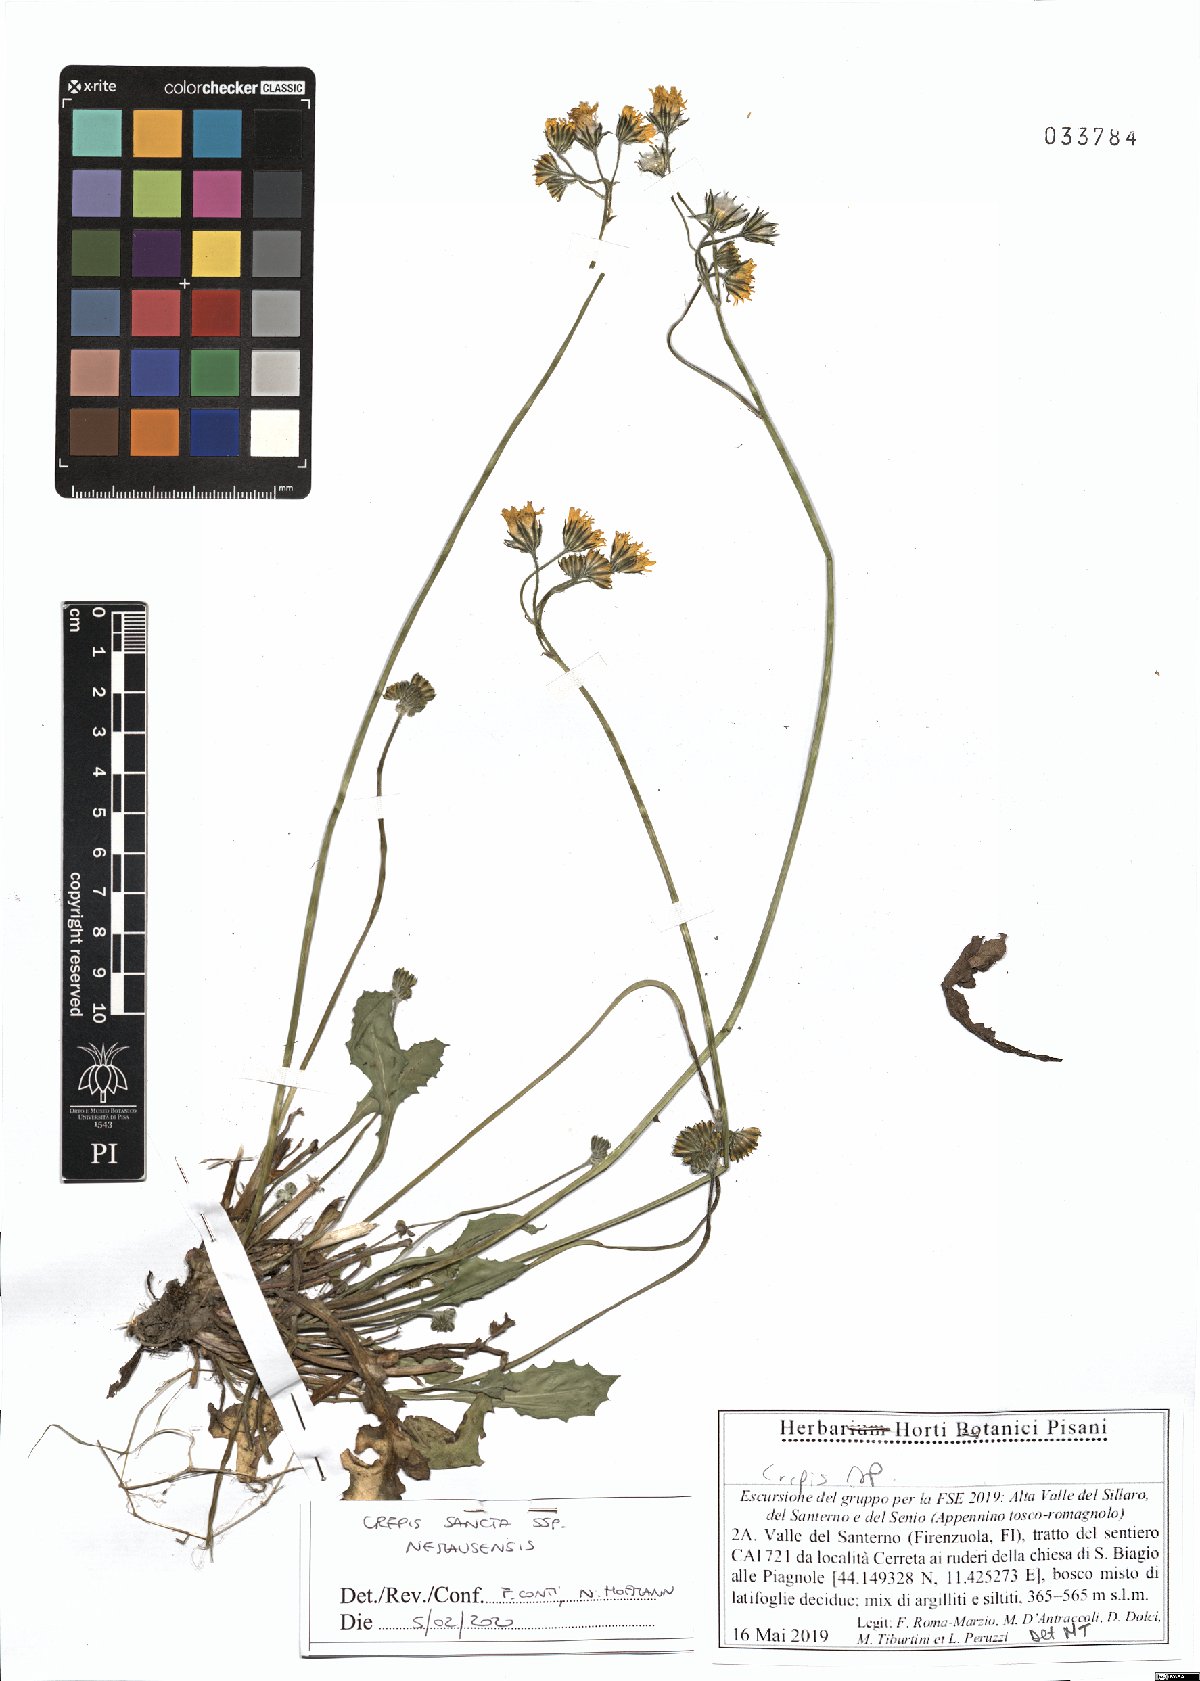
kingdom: Plantae
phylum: Tracheophyta
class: Magnoliopsida
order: Asterales
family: Asteraceae
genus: Crepis
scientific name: Crepis sancta
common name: Hawk's-beard
